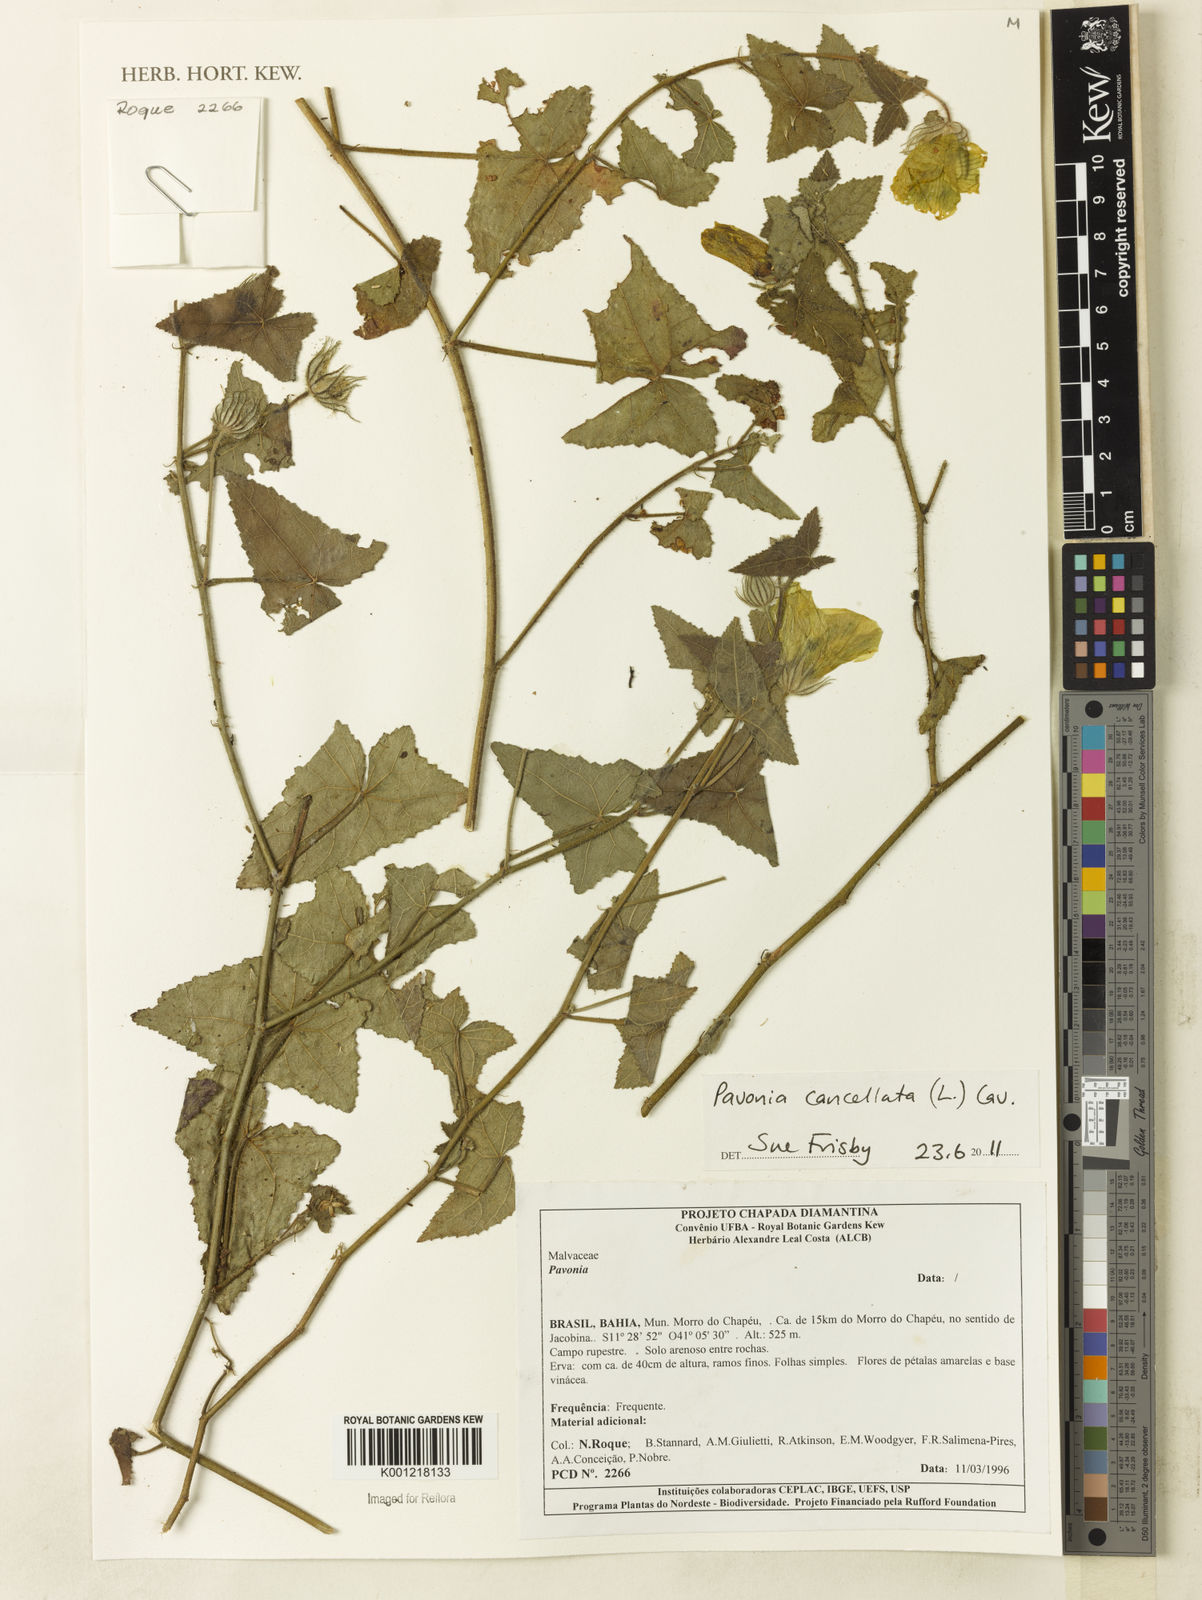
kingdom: Plantae
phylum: Tracheophyta
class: Magnoliopsida
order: Malvales
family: Malvaceae
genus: Pavonia
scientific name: Pavonia cancellata
